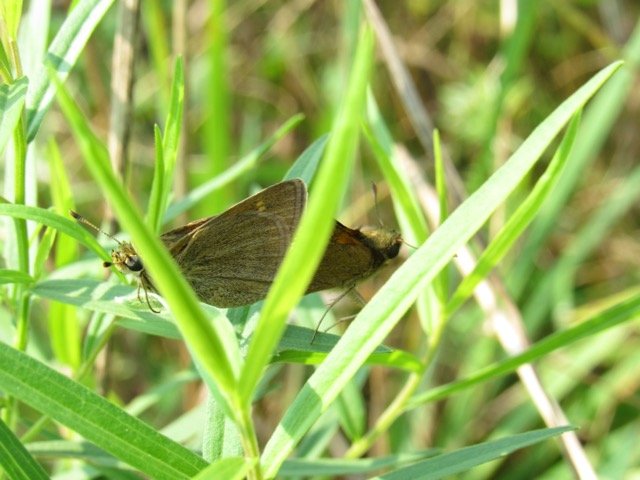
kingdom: Animalia
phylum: Arthropoda
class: Insecta
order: Lepidoptera
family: Hesperiidae
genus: Polites
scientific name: Polites themistocles
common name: Tawny-edged Skipper
